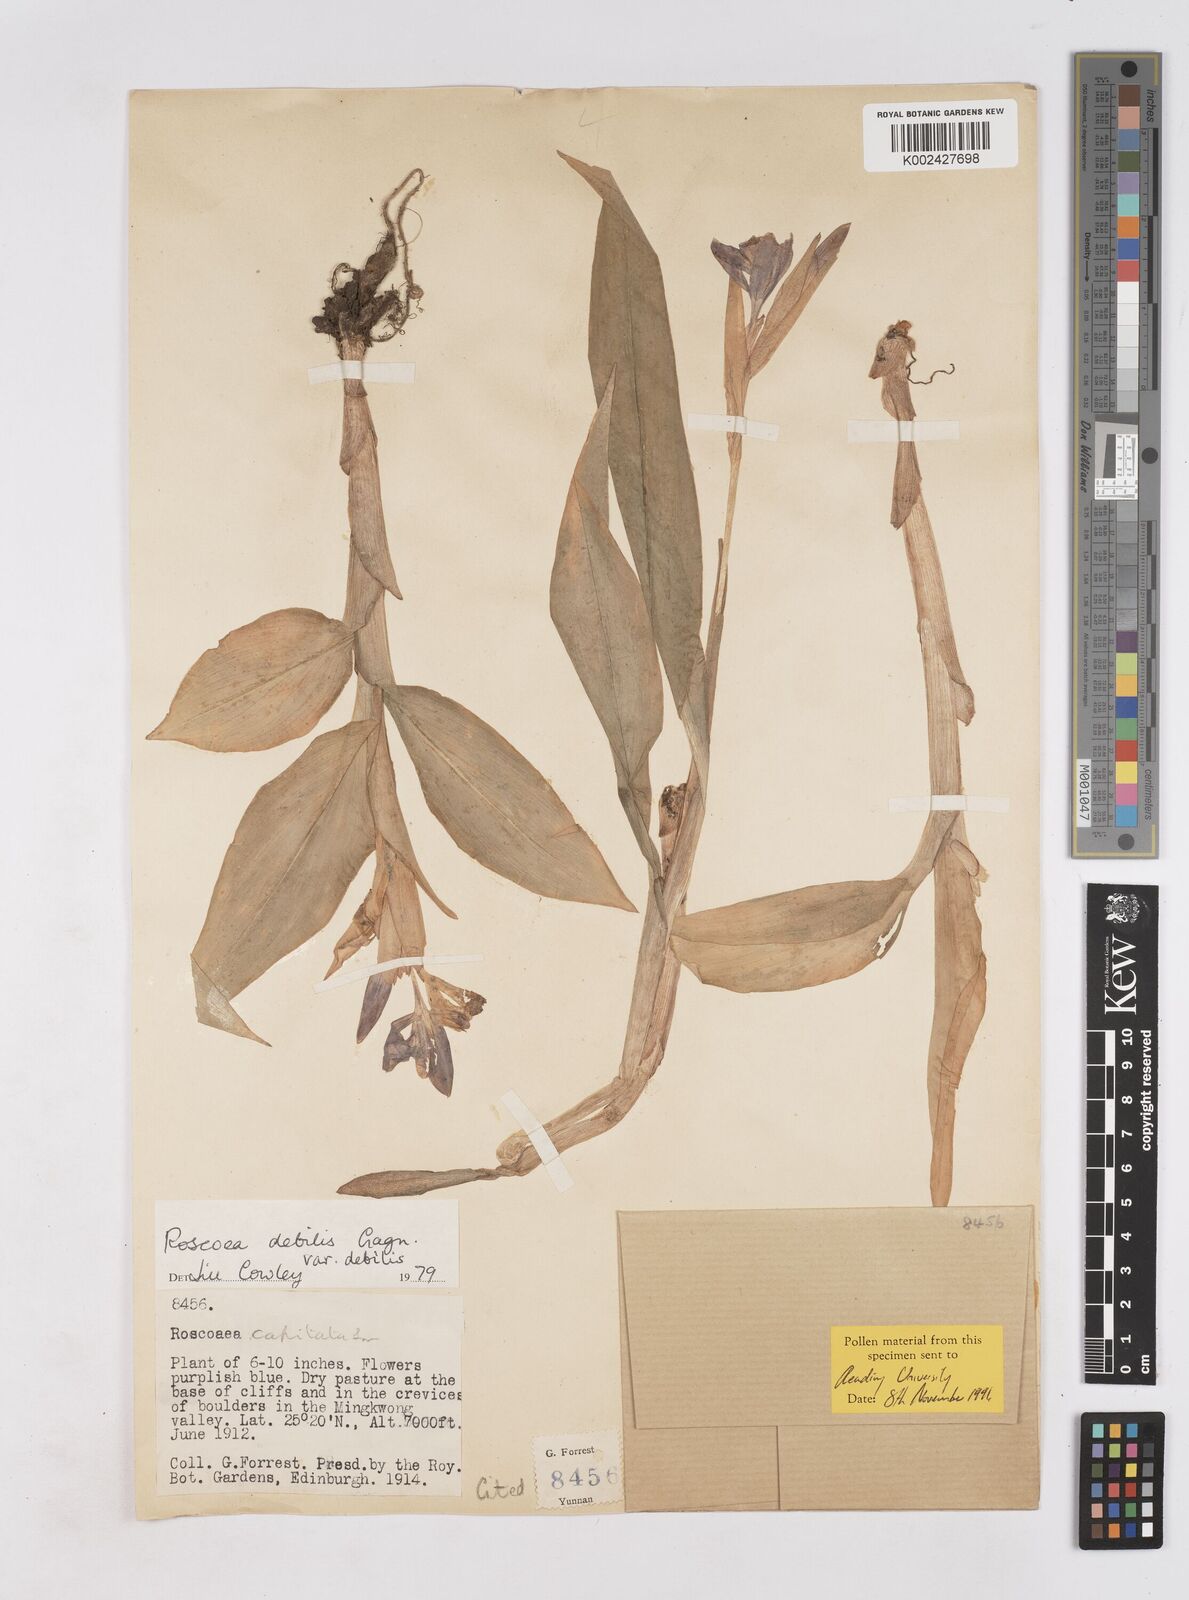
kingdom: Plantae
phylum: Tracheophyta
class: Liliopsida
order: Zingiberales
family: Zingiberaceae
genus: Roscoea
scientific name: Roscoea debilis
